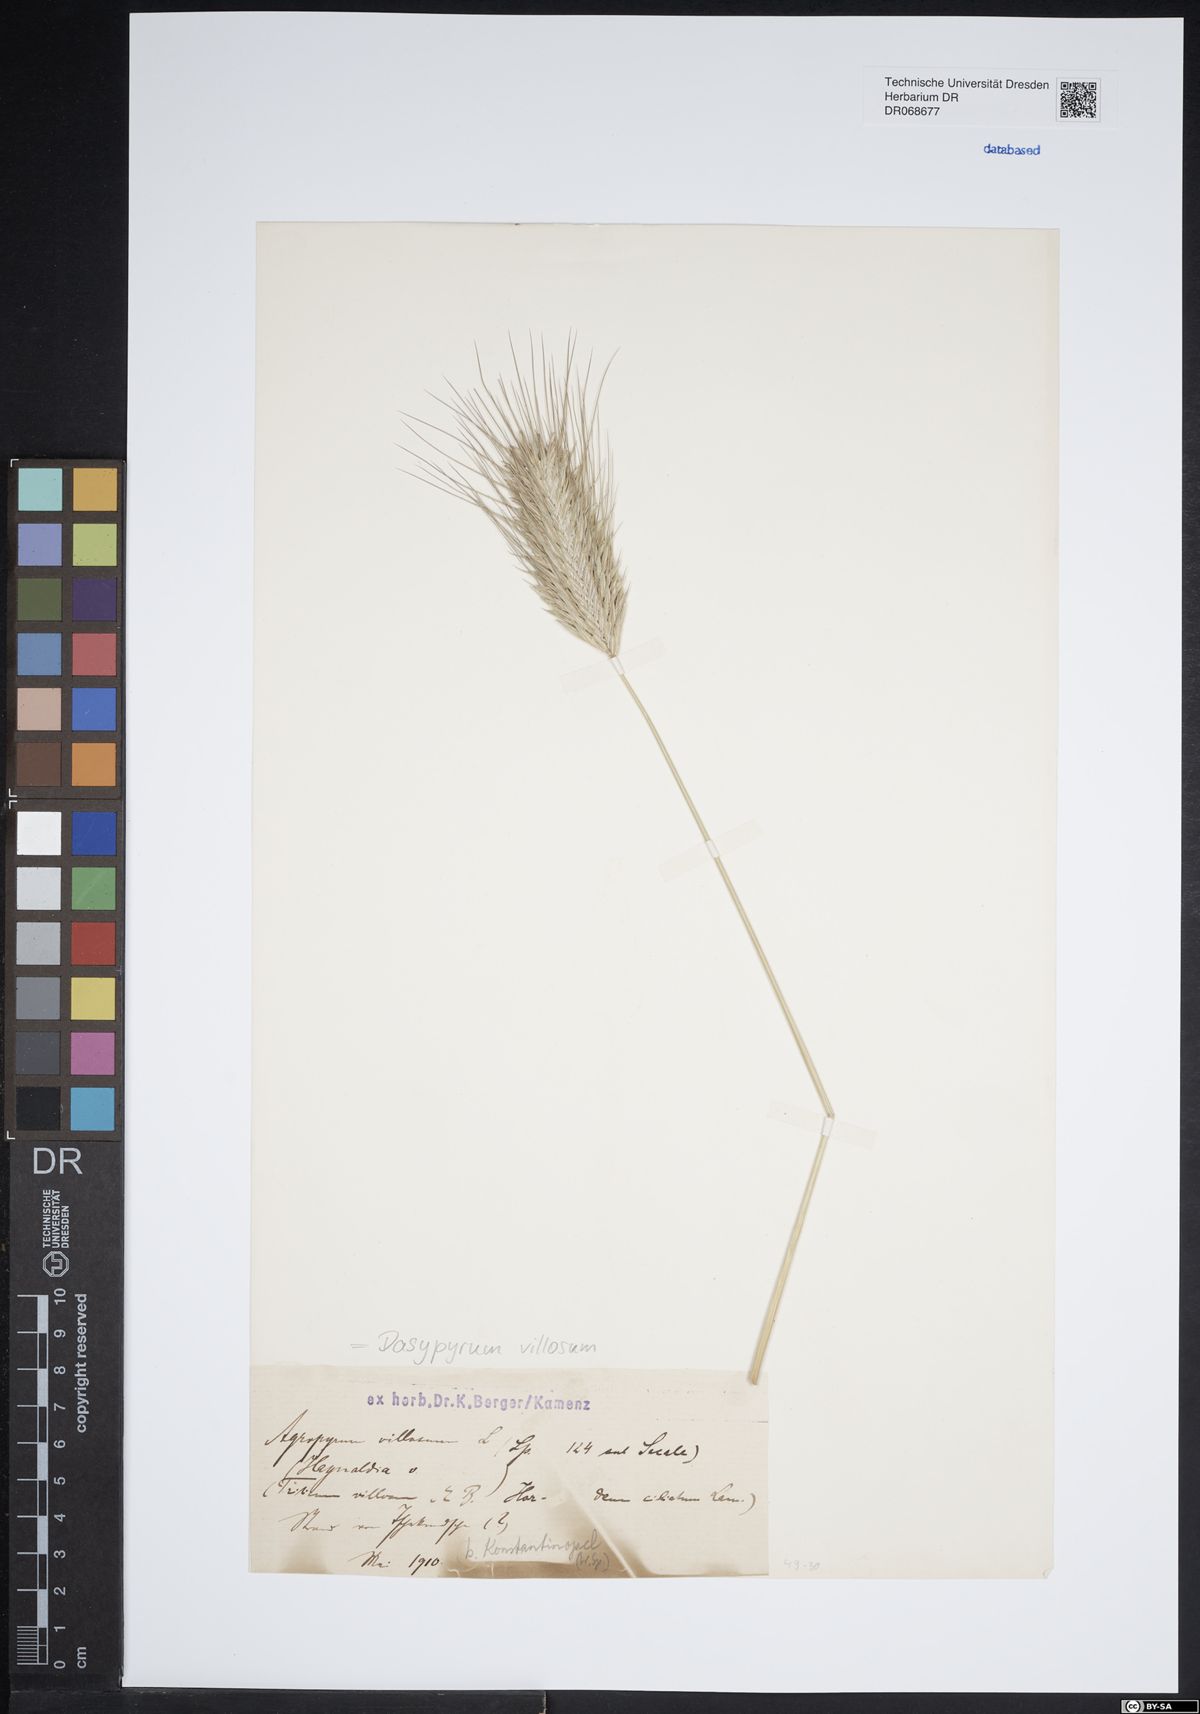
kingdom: Plantae
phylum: Tracheophyta
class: Liliopsida
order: Poales
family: Poaceae
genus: Dasypyrum
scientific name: Dasypyrum villosum
